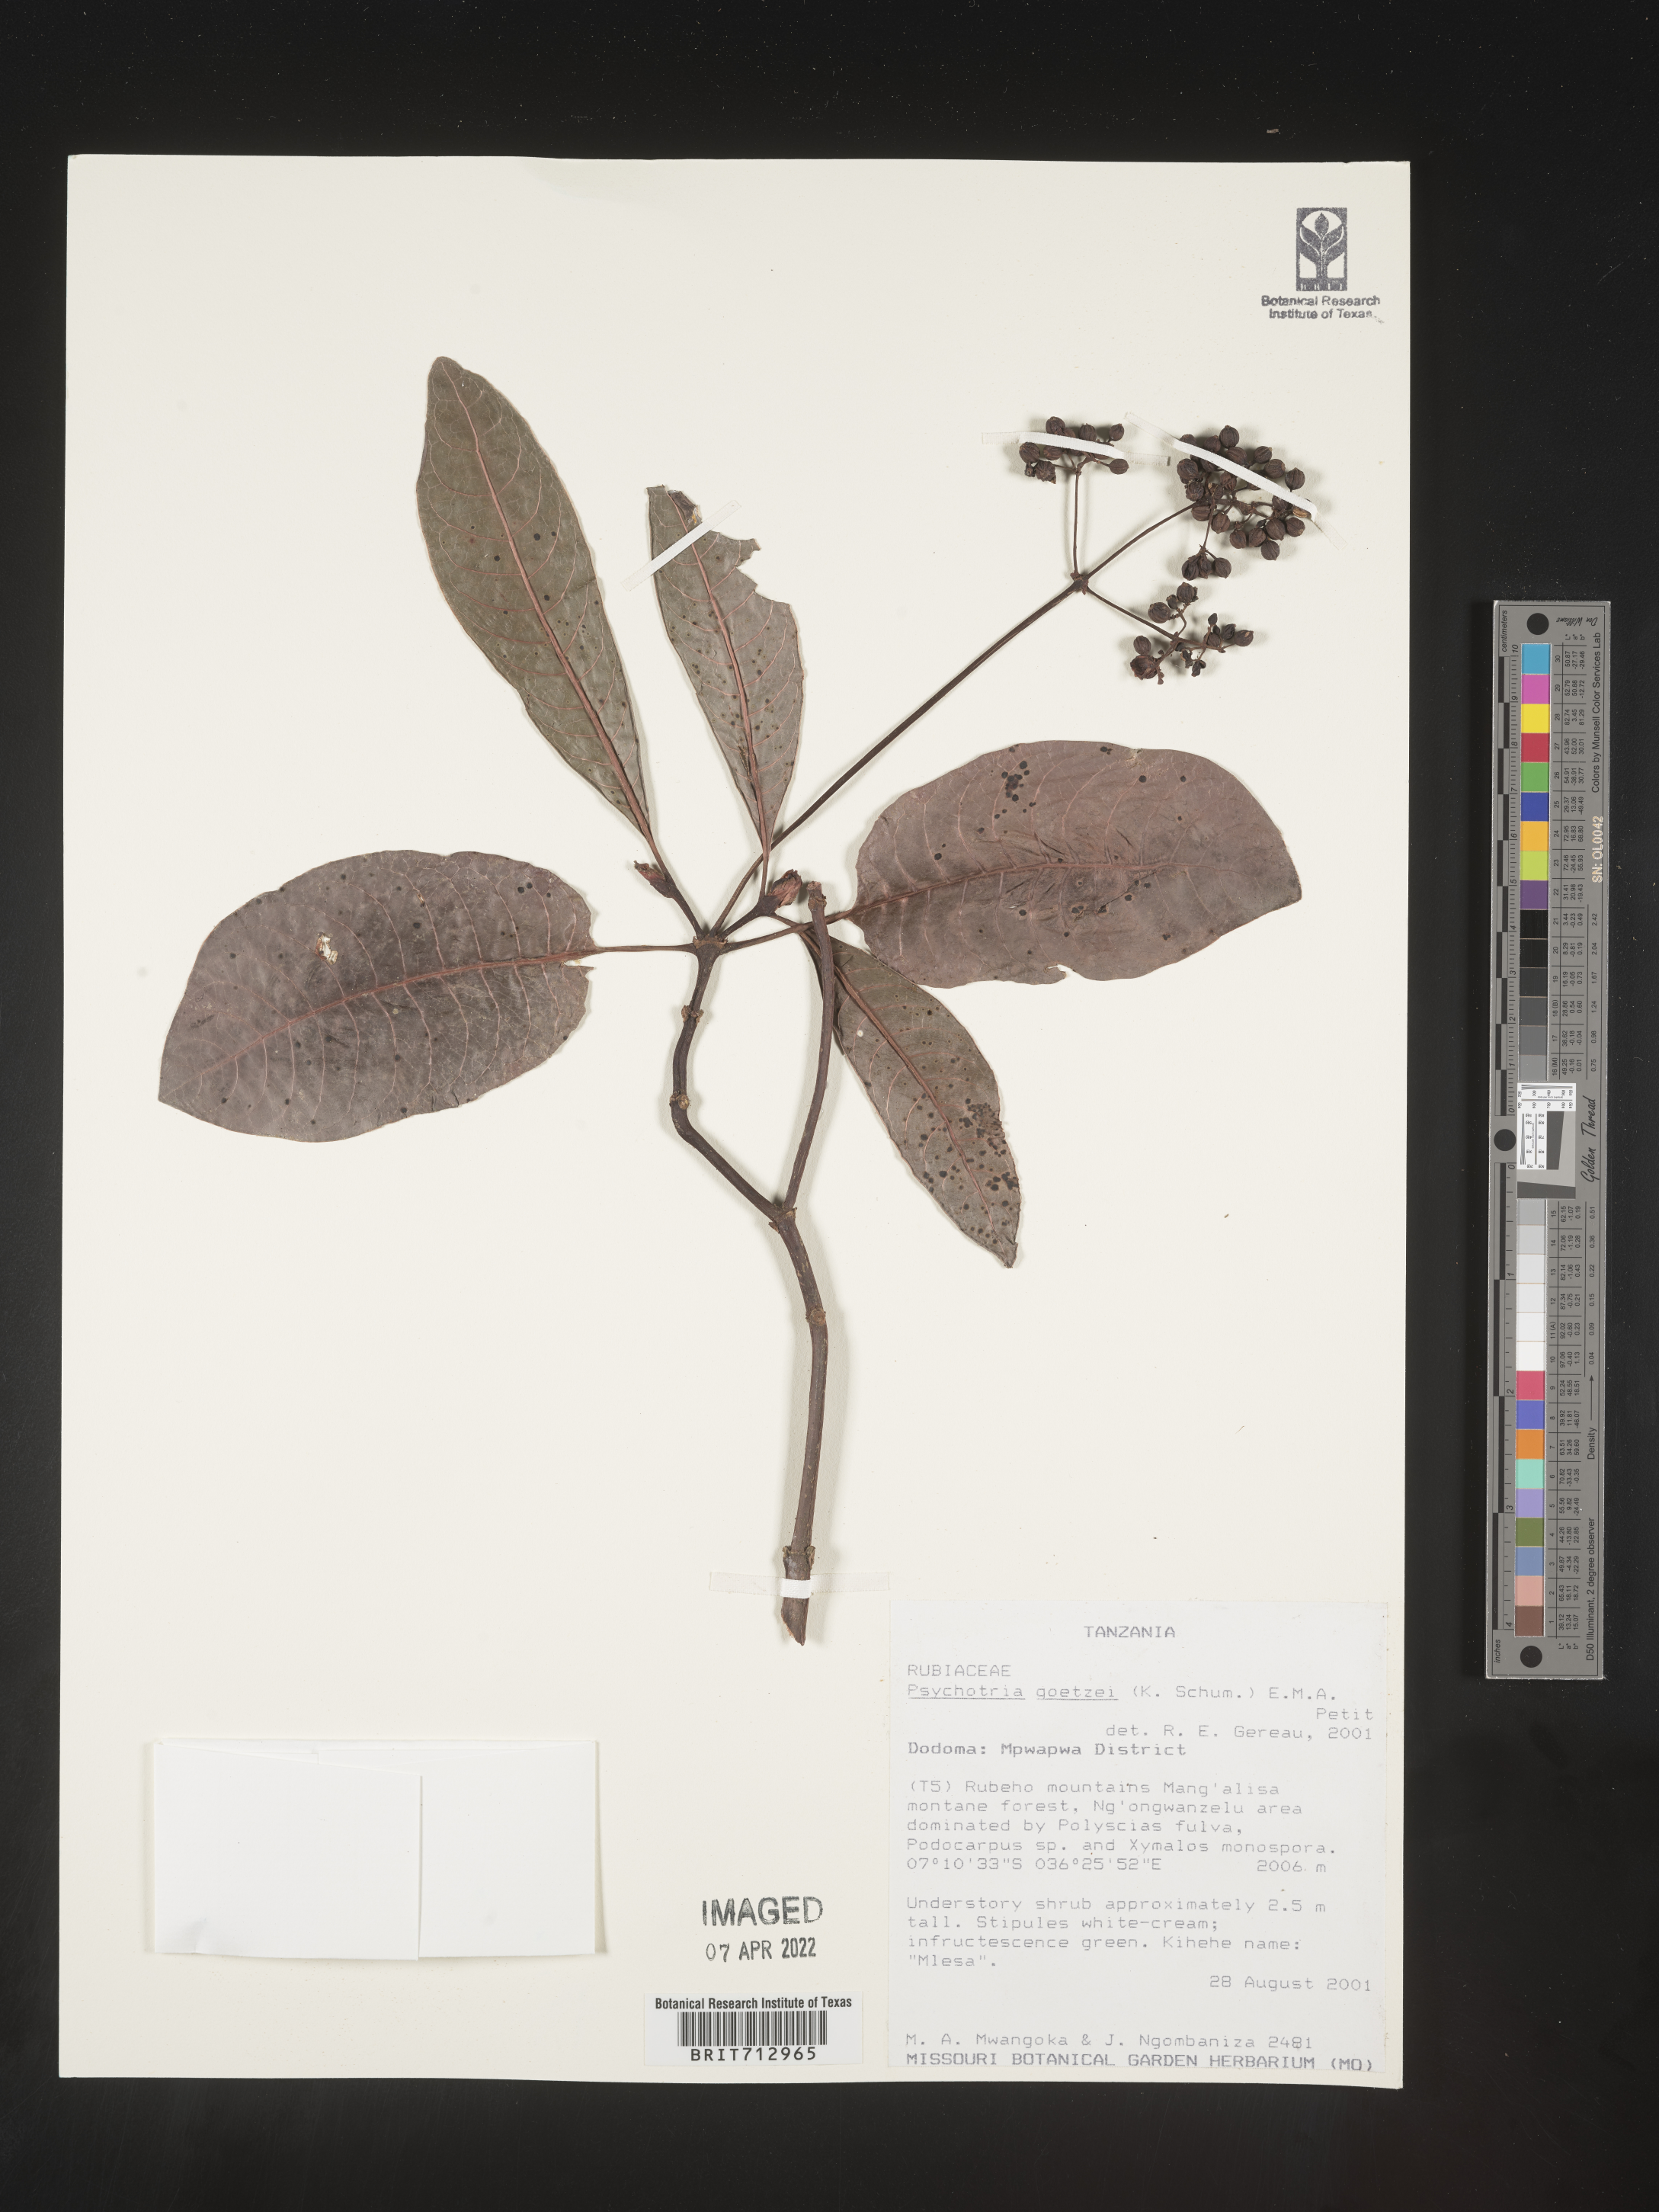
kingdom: Plantae
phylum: Tracheophyta
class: Magnoliopsida
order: Gentianales
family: Rubiaceae
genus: Psychotria
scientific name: Psychotria
